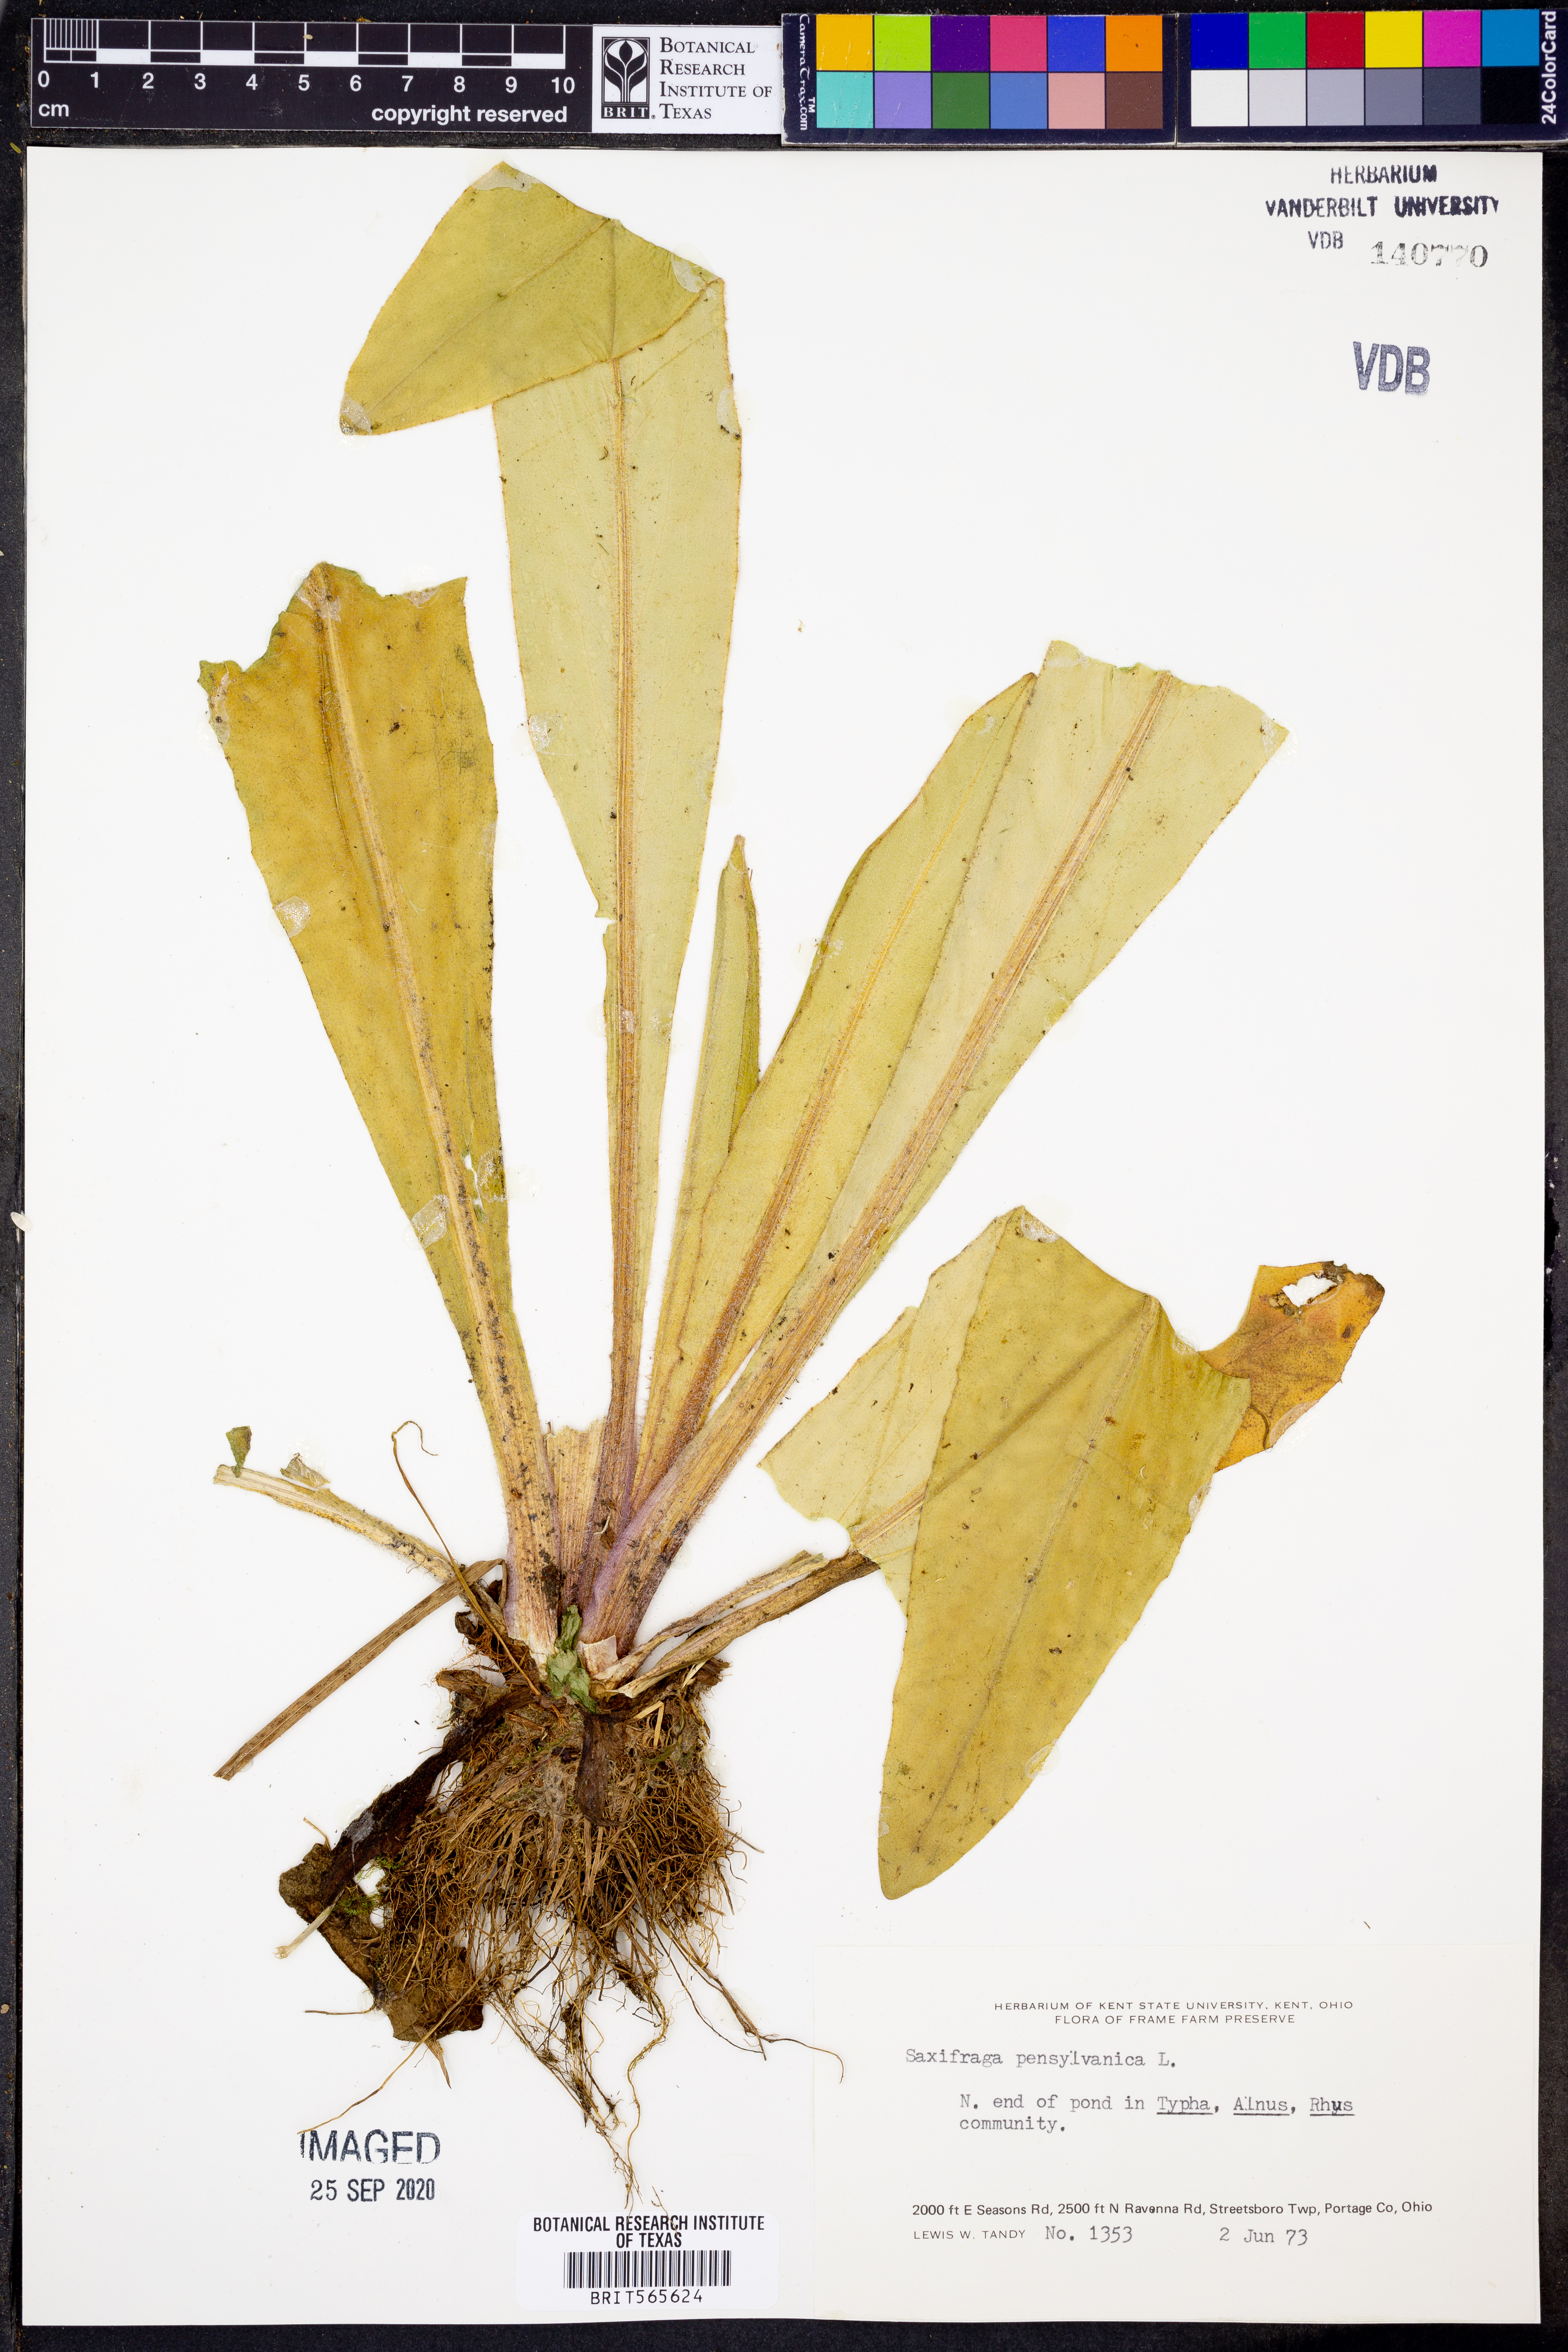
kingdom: Plantae
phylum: Tracheophyta
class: Magnoliopsida
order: Saxifragales
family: Saxifragaceae
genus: Micranthes
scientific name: Micranthes pensylvanica
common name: Marsh saxifrage
